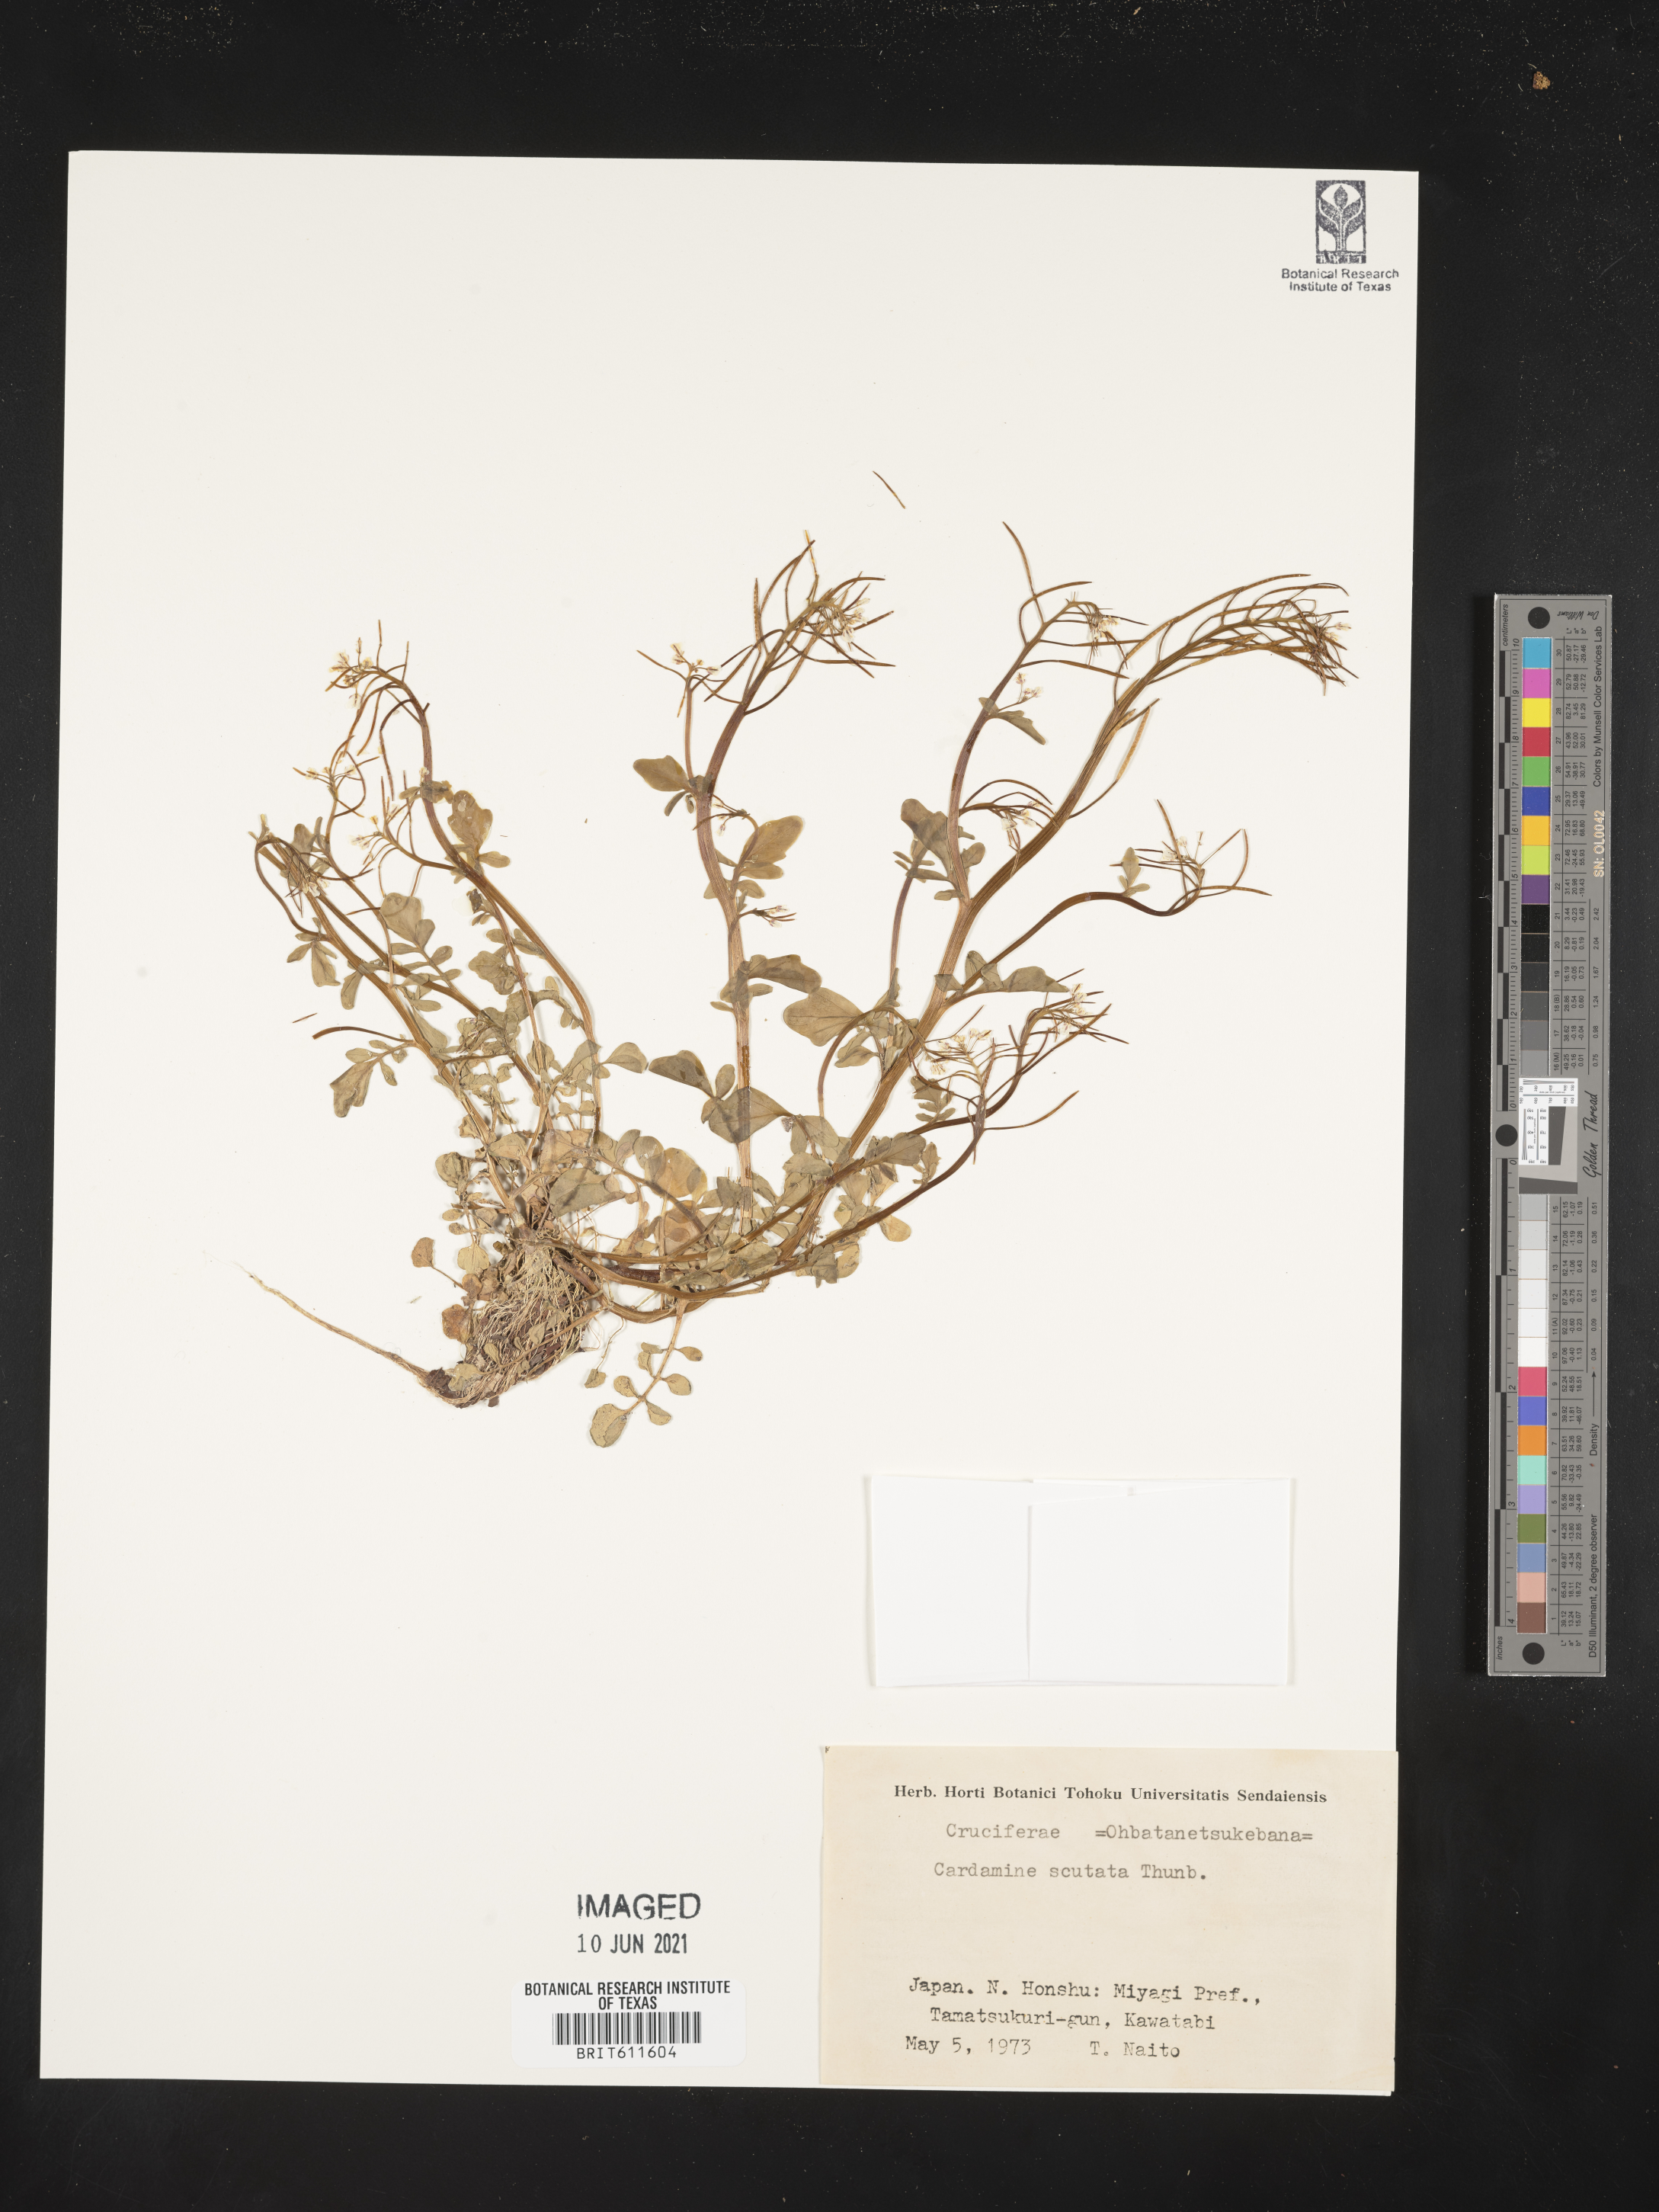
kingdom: Plantae
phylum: Tracheophyta
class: Magnoliopsida
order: Brassicales
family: Brassicaceae
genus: Cardamine
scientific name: Cardamine scutata
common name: Japanese bittercress
